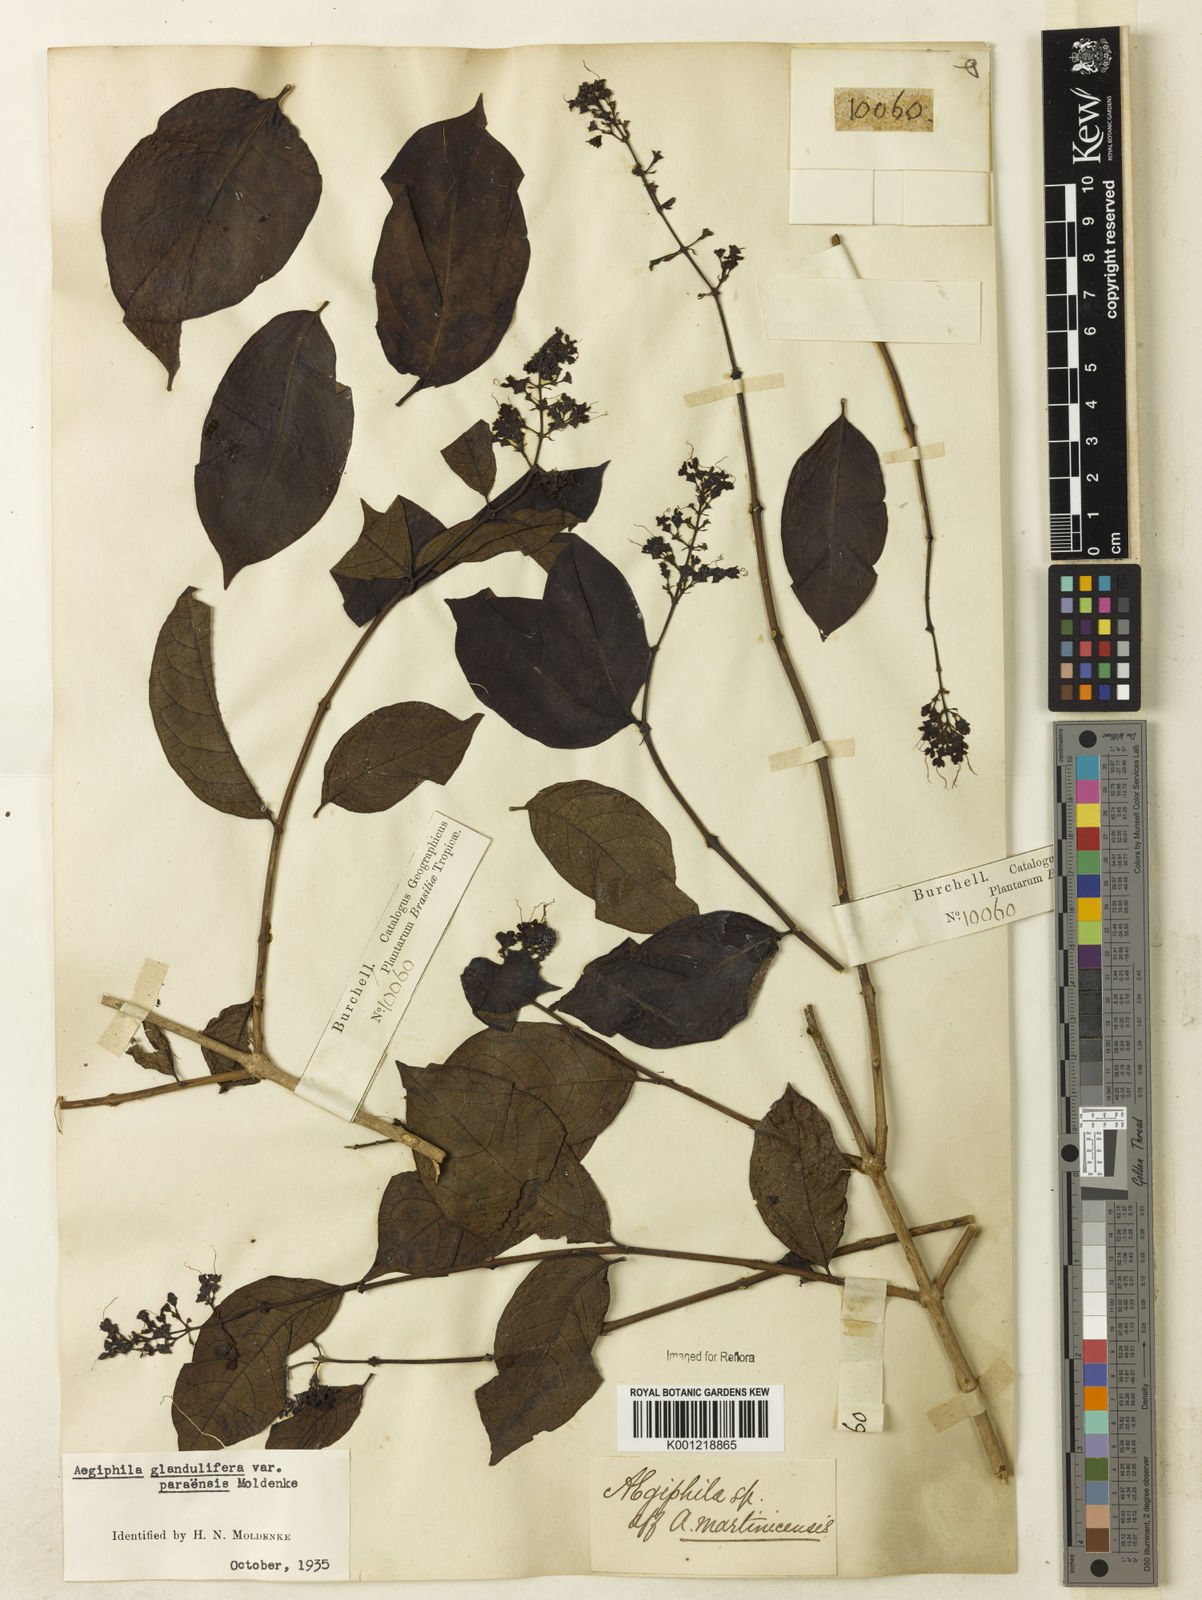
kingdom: Plantae
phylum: Tracheophyta
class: Magnoliopsida
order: Lamiales
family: Lamiaceae
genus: Aegiphila
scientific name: Aegiphila panamensis
